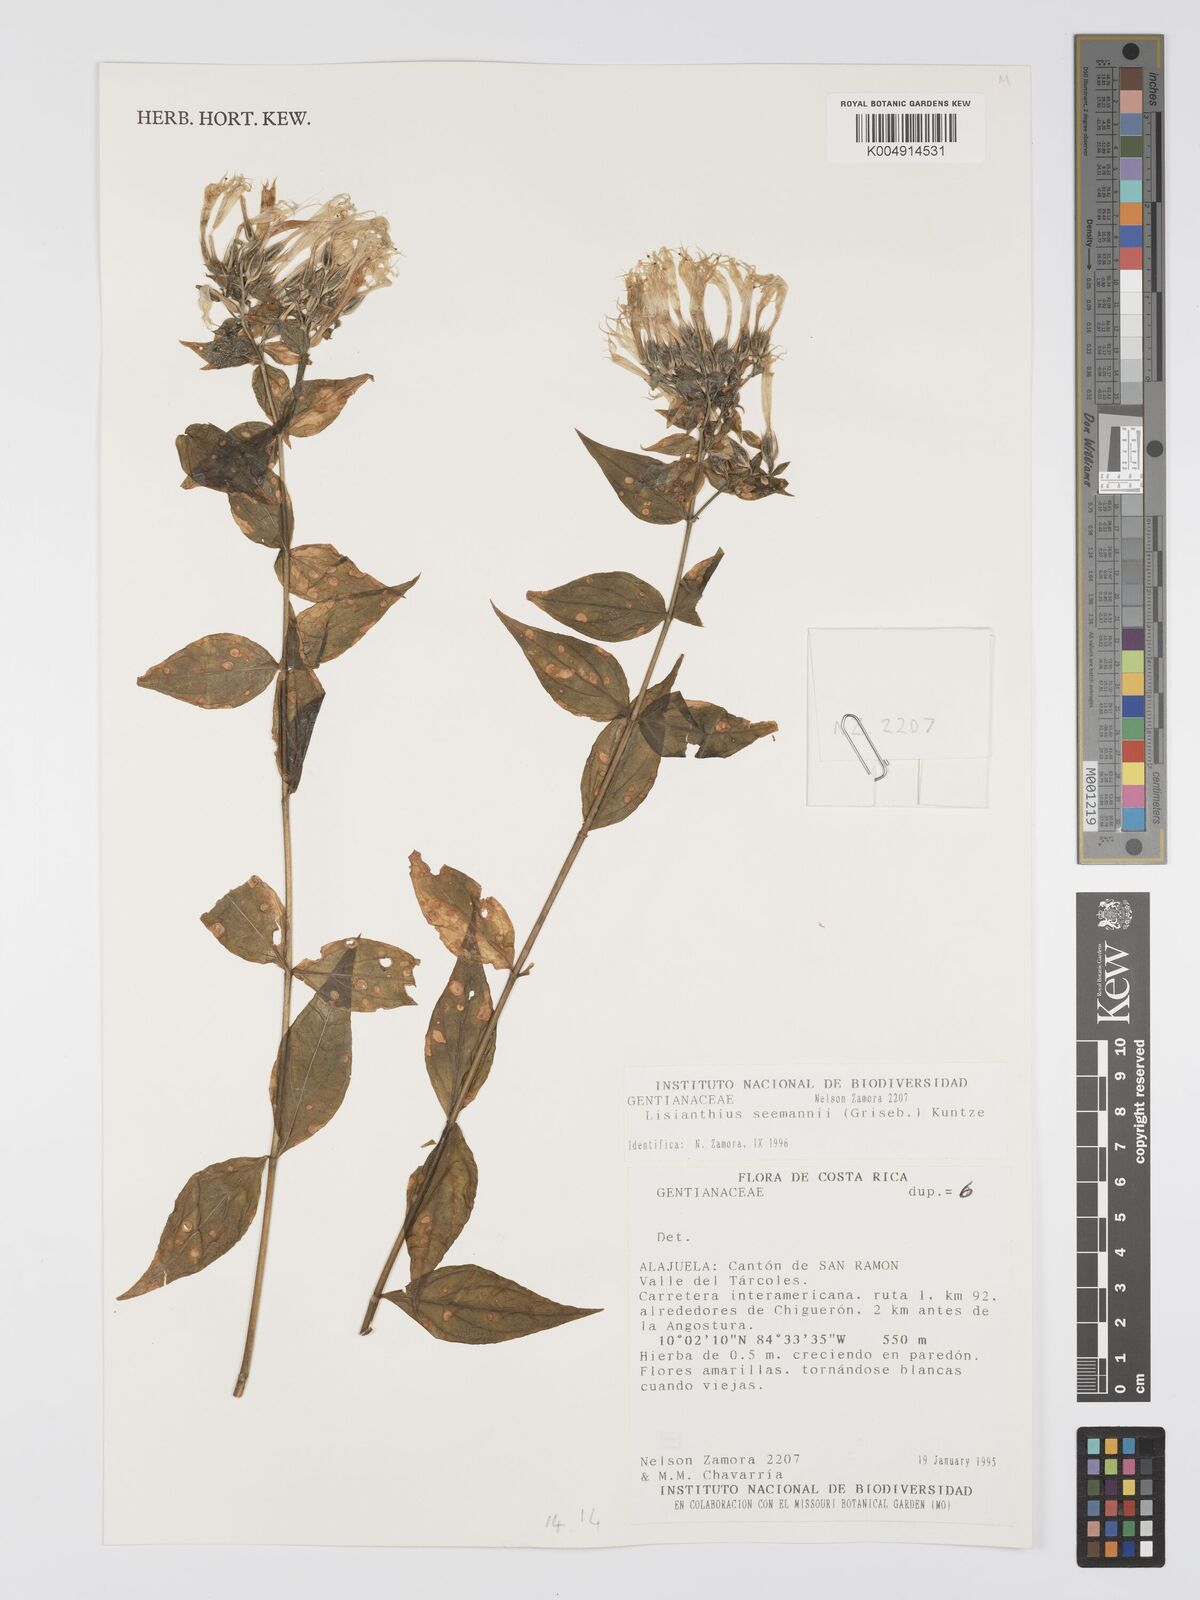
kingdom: Plantae
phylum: Tracheophyta
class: Magnoliopsida
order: Gentianales
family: Gentianaceae
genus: Lisianthus
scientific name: Lisianthus seemannii
